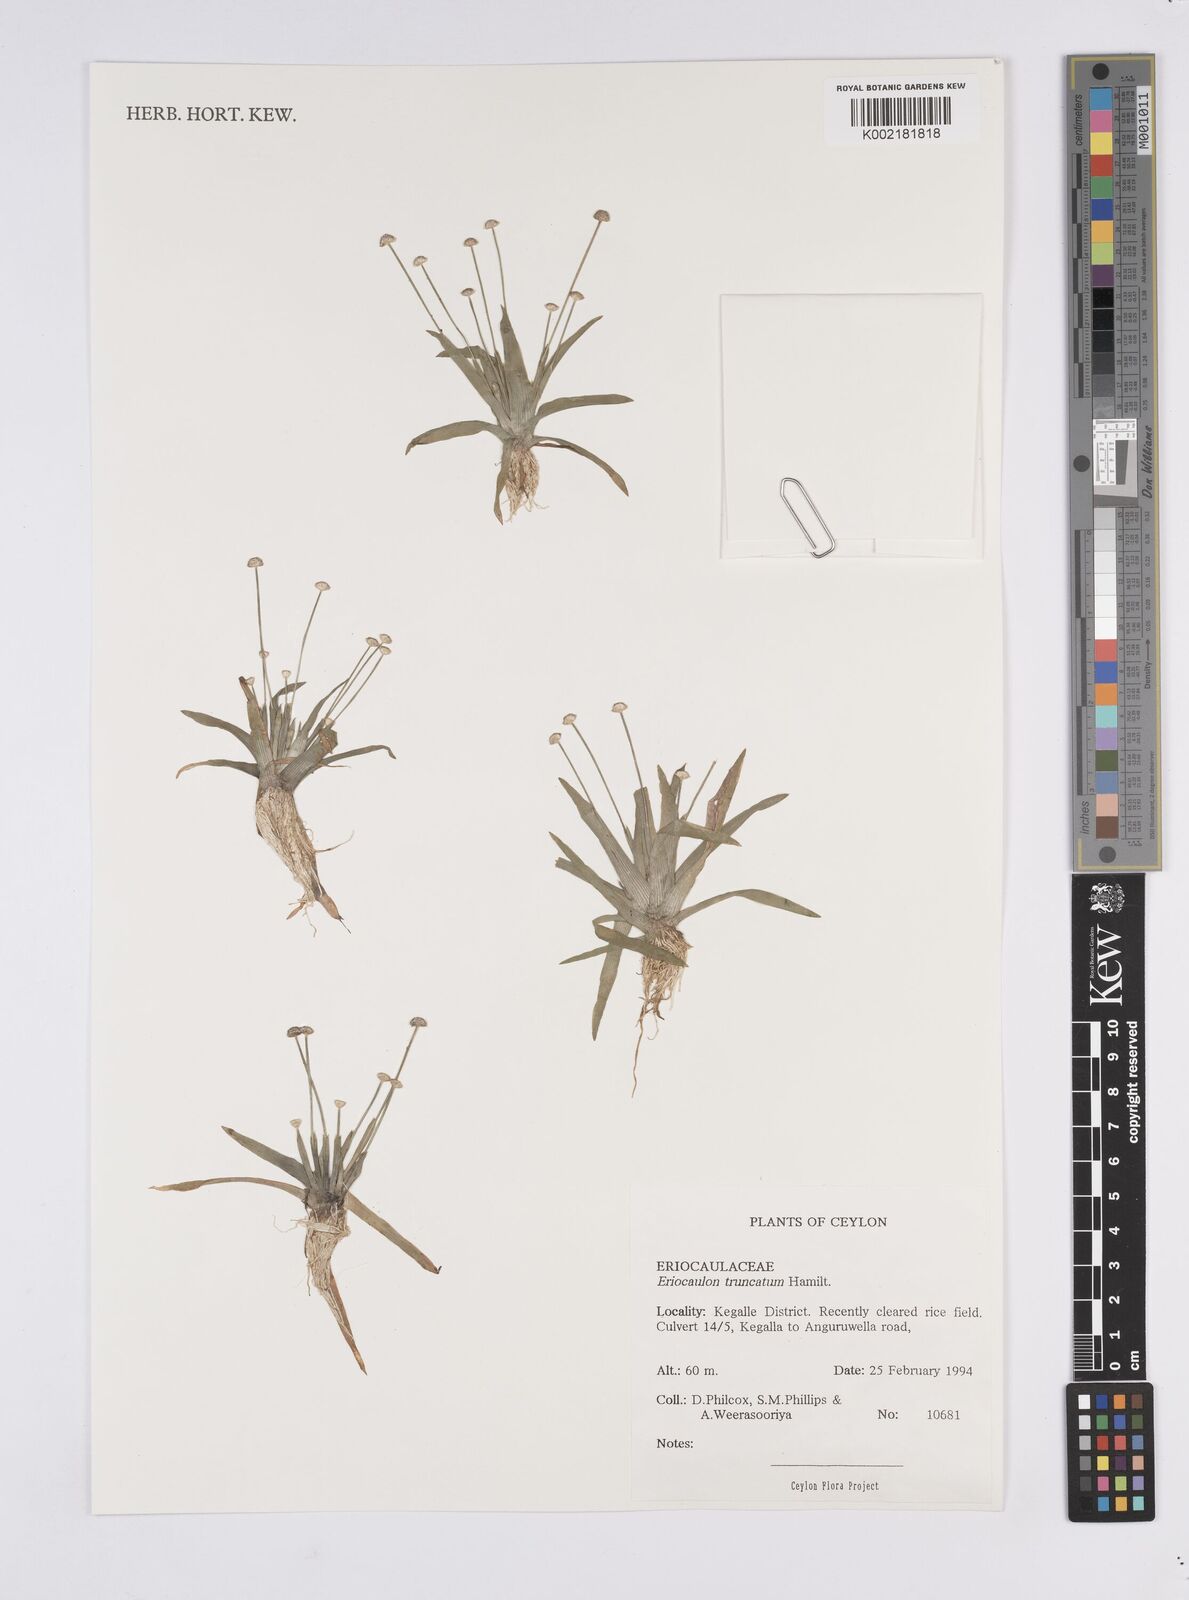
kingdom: Plantae
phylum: Tracheophyta
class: Liliopsida
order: Poales
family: Eriocaulaceae
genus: Eriocaulon
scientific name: Eriocaulon truncatum
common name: Short pipe-wort
